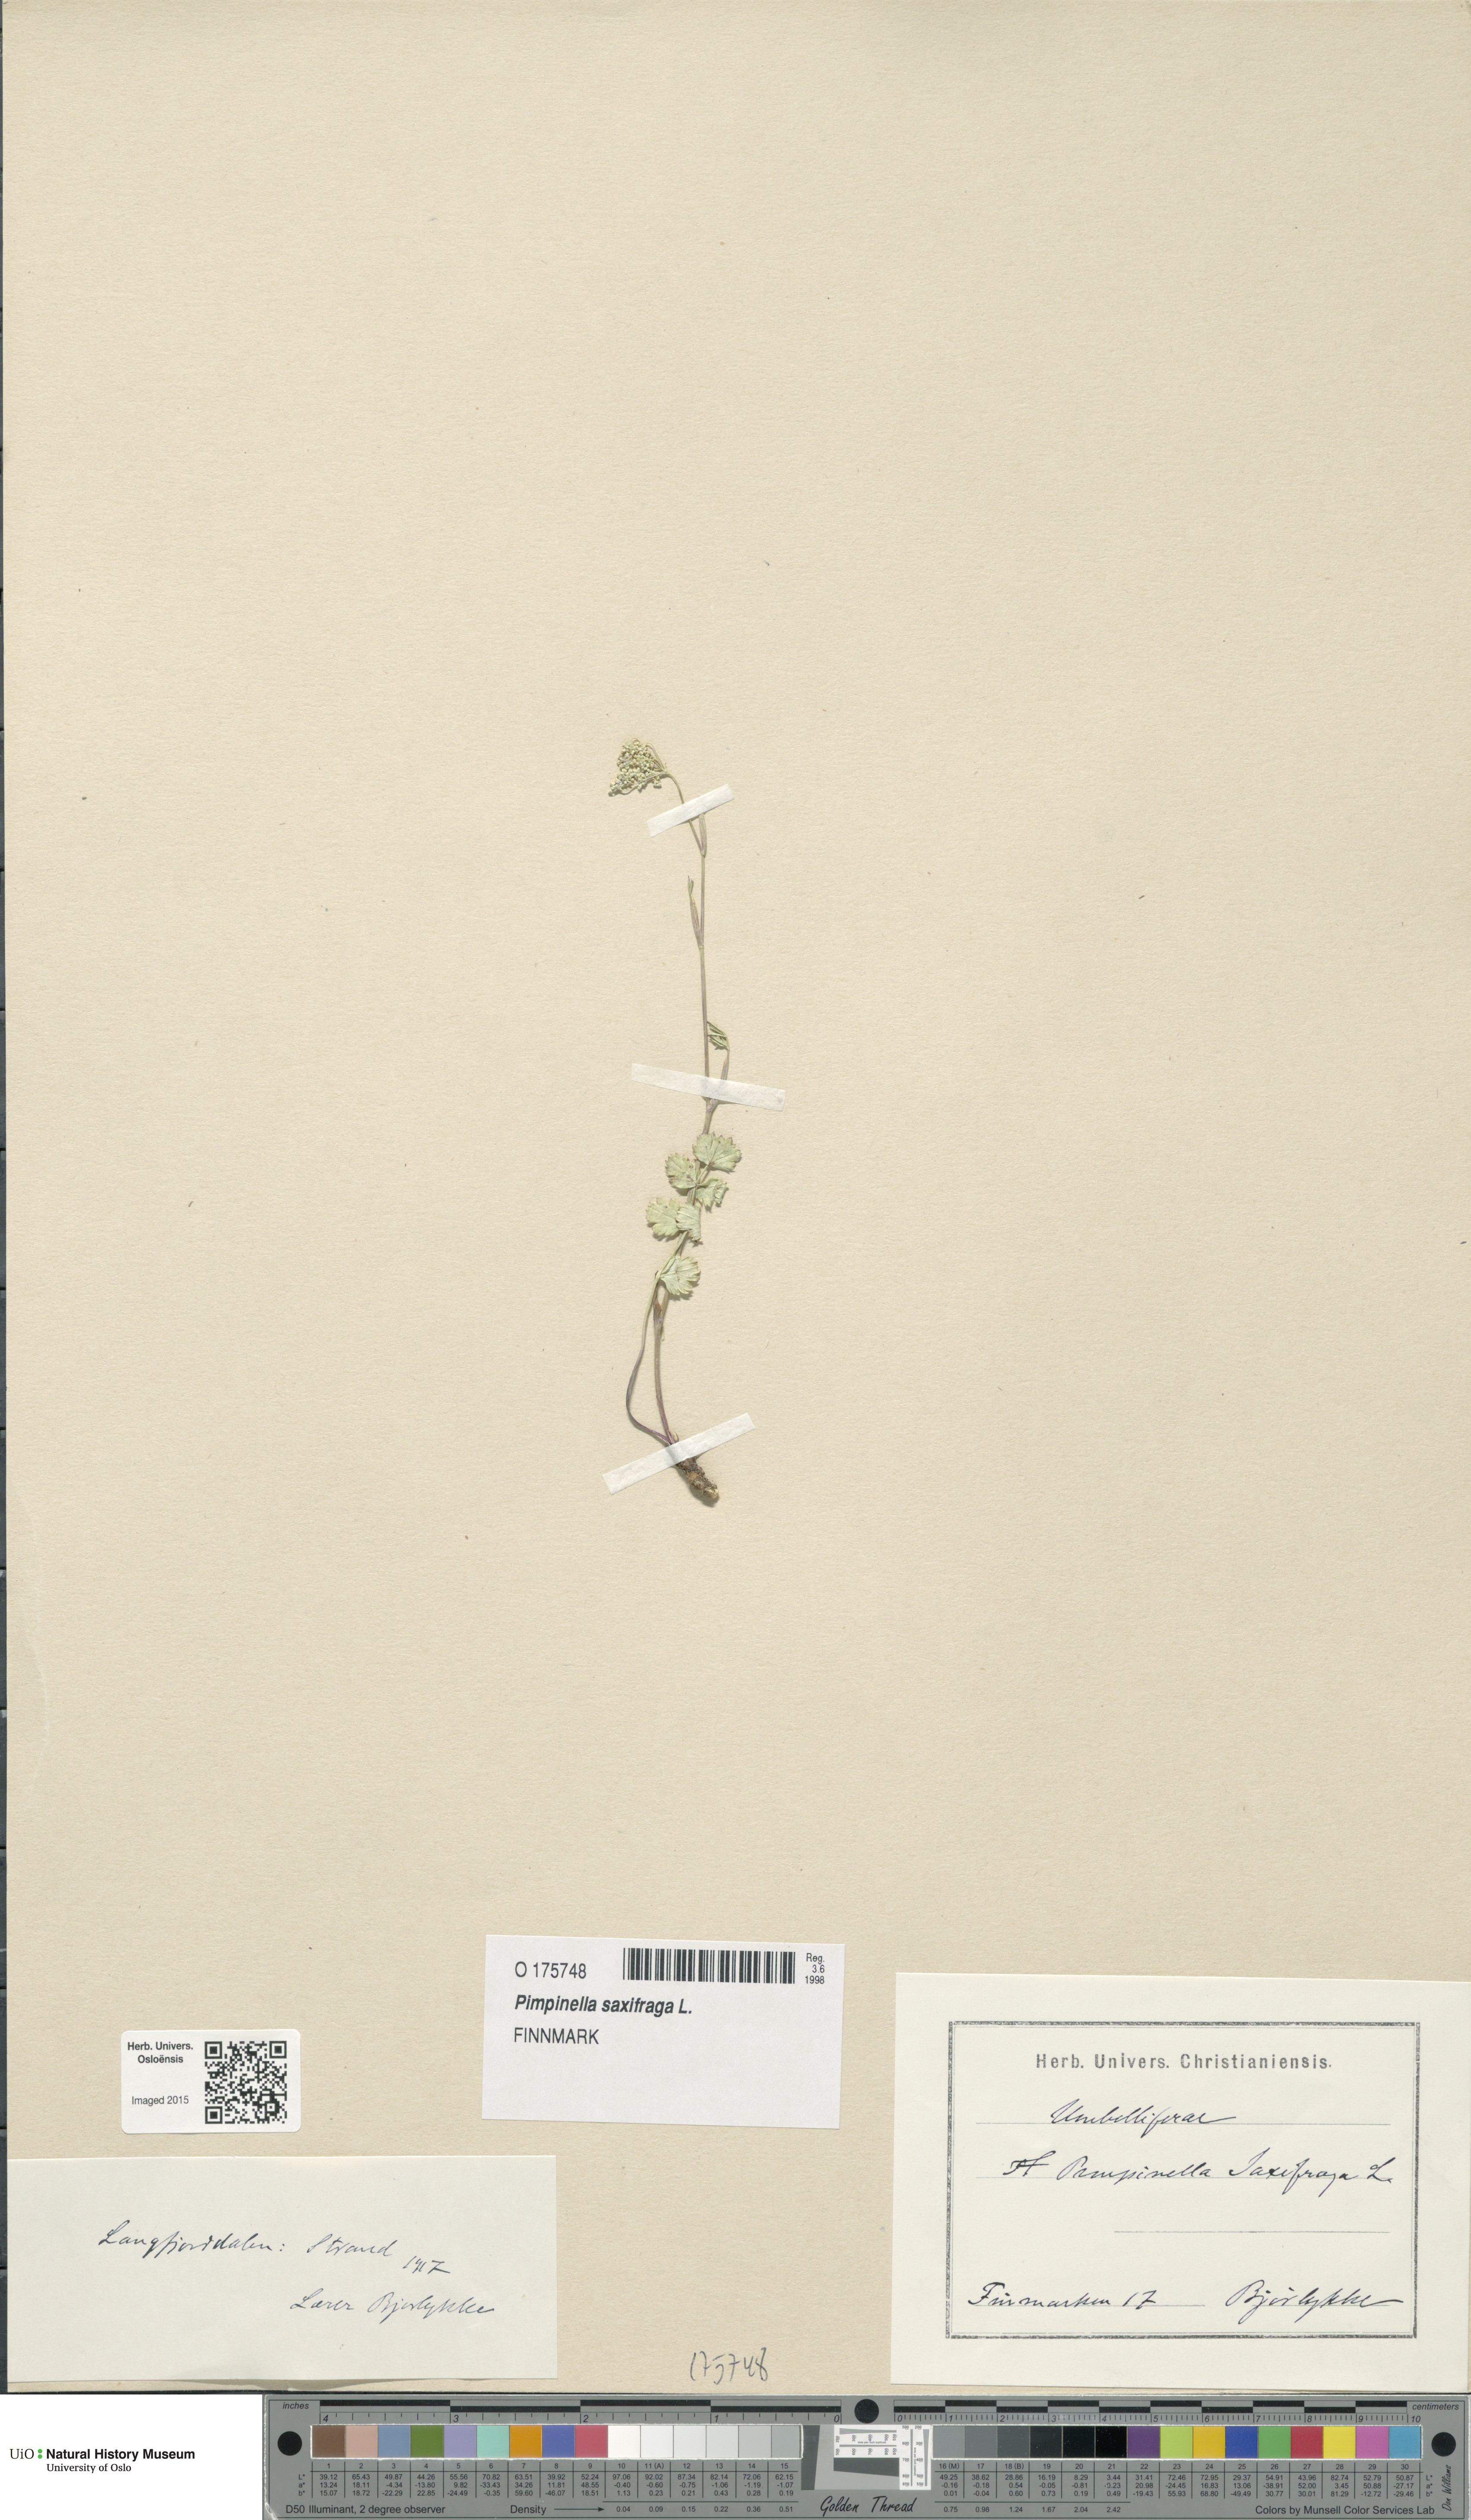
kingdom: Plantae
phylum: Tracheophyta
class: Magnoliopsida
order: Apiales
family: Apiaceae
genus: Pimpinella
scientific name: Pimpinella saxifraga
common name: Burnet-saxifrage
